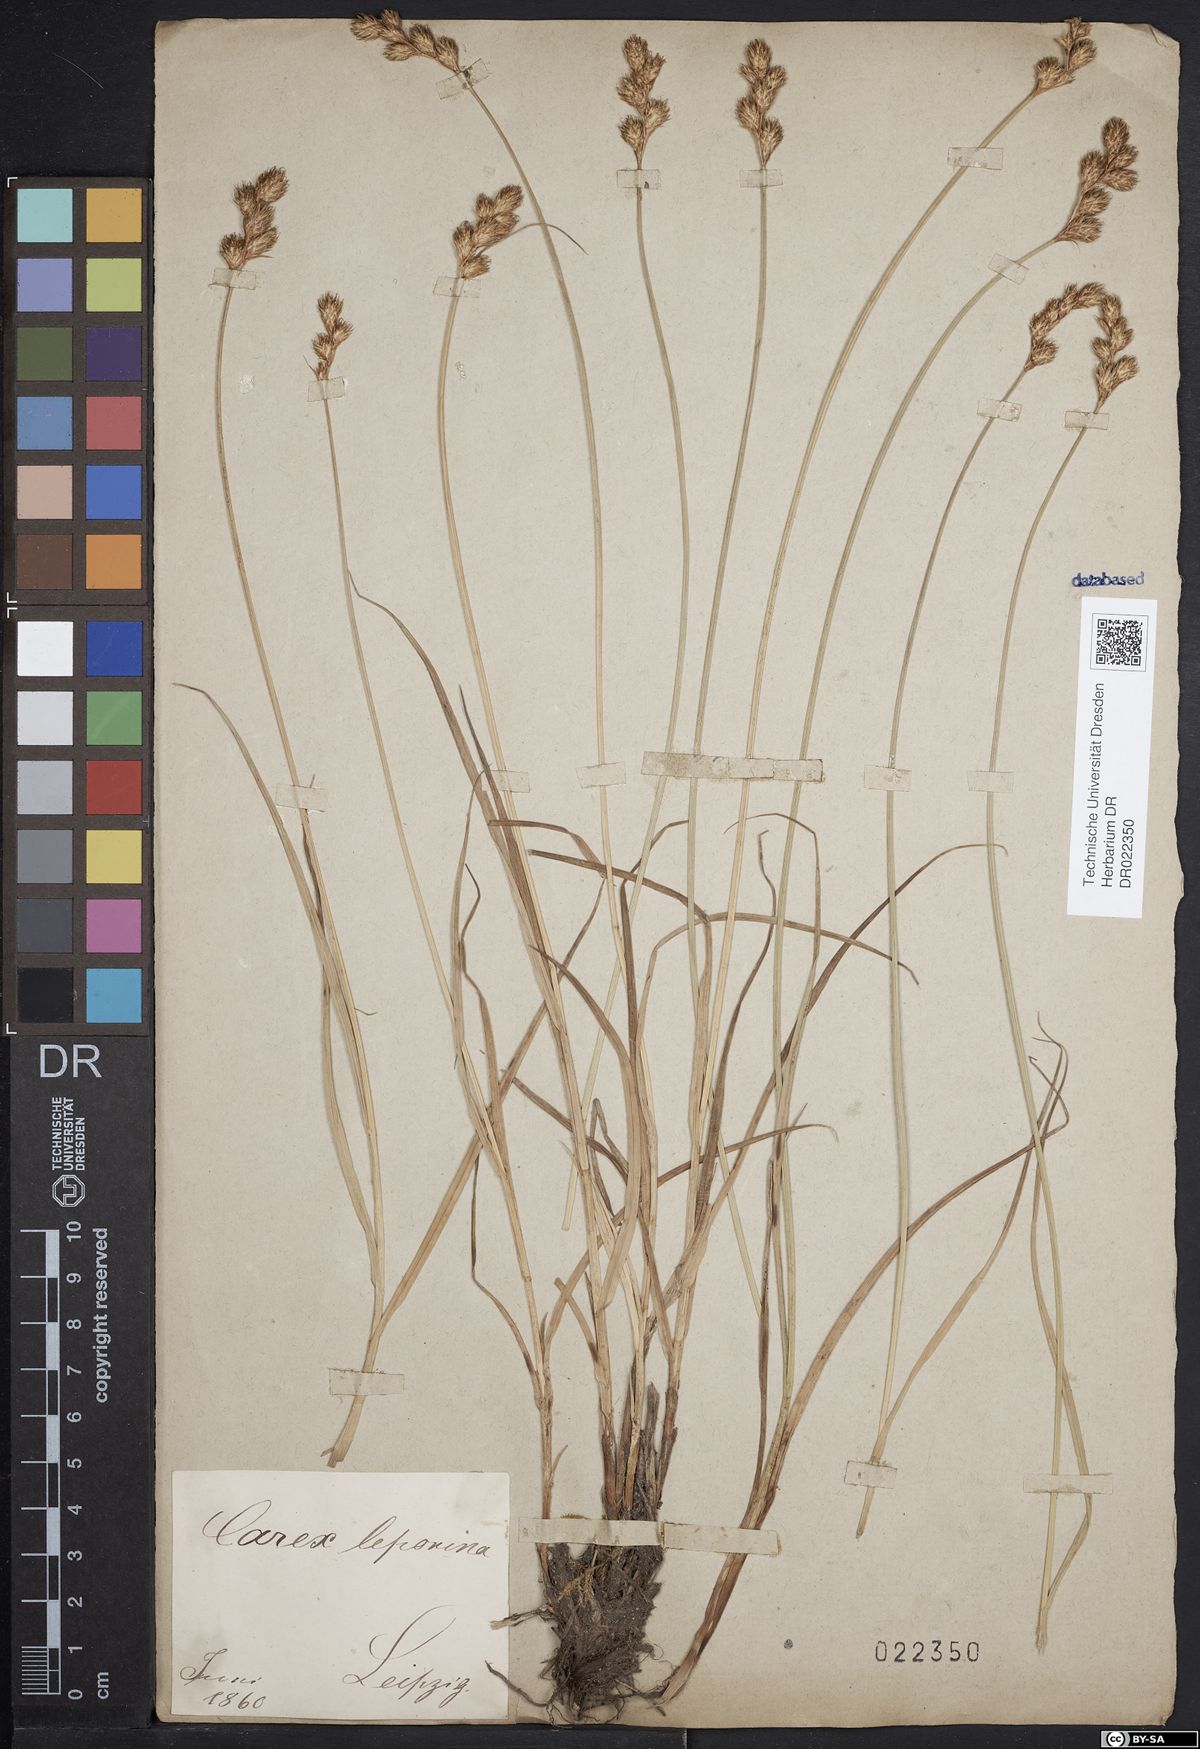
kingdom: Plantae
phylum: Tracheophyta
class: Liliopsida
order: Poales
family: Cyperaceae
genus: Carex
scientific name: Carex leporina
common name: Oval sedge
